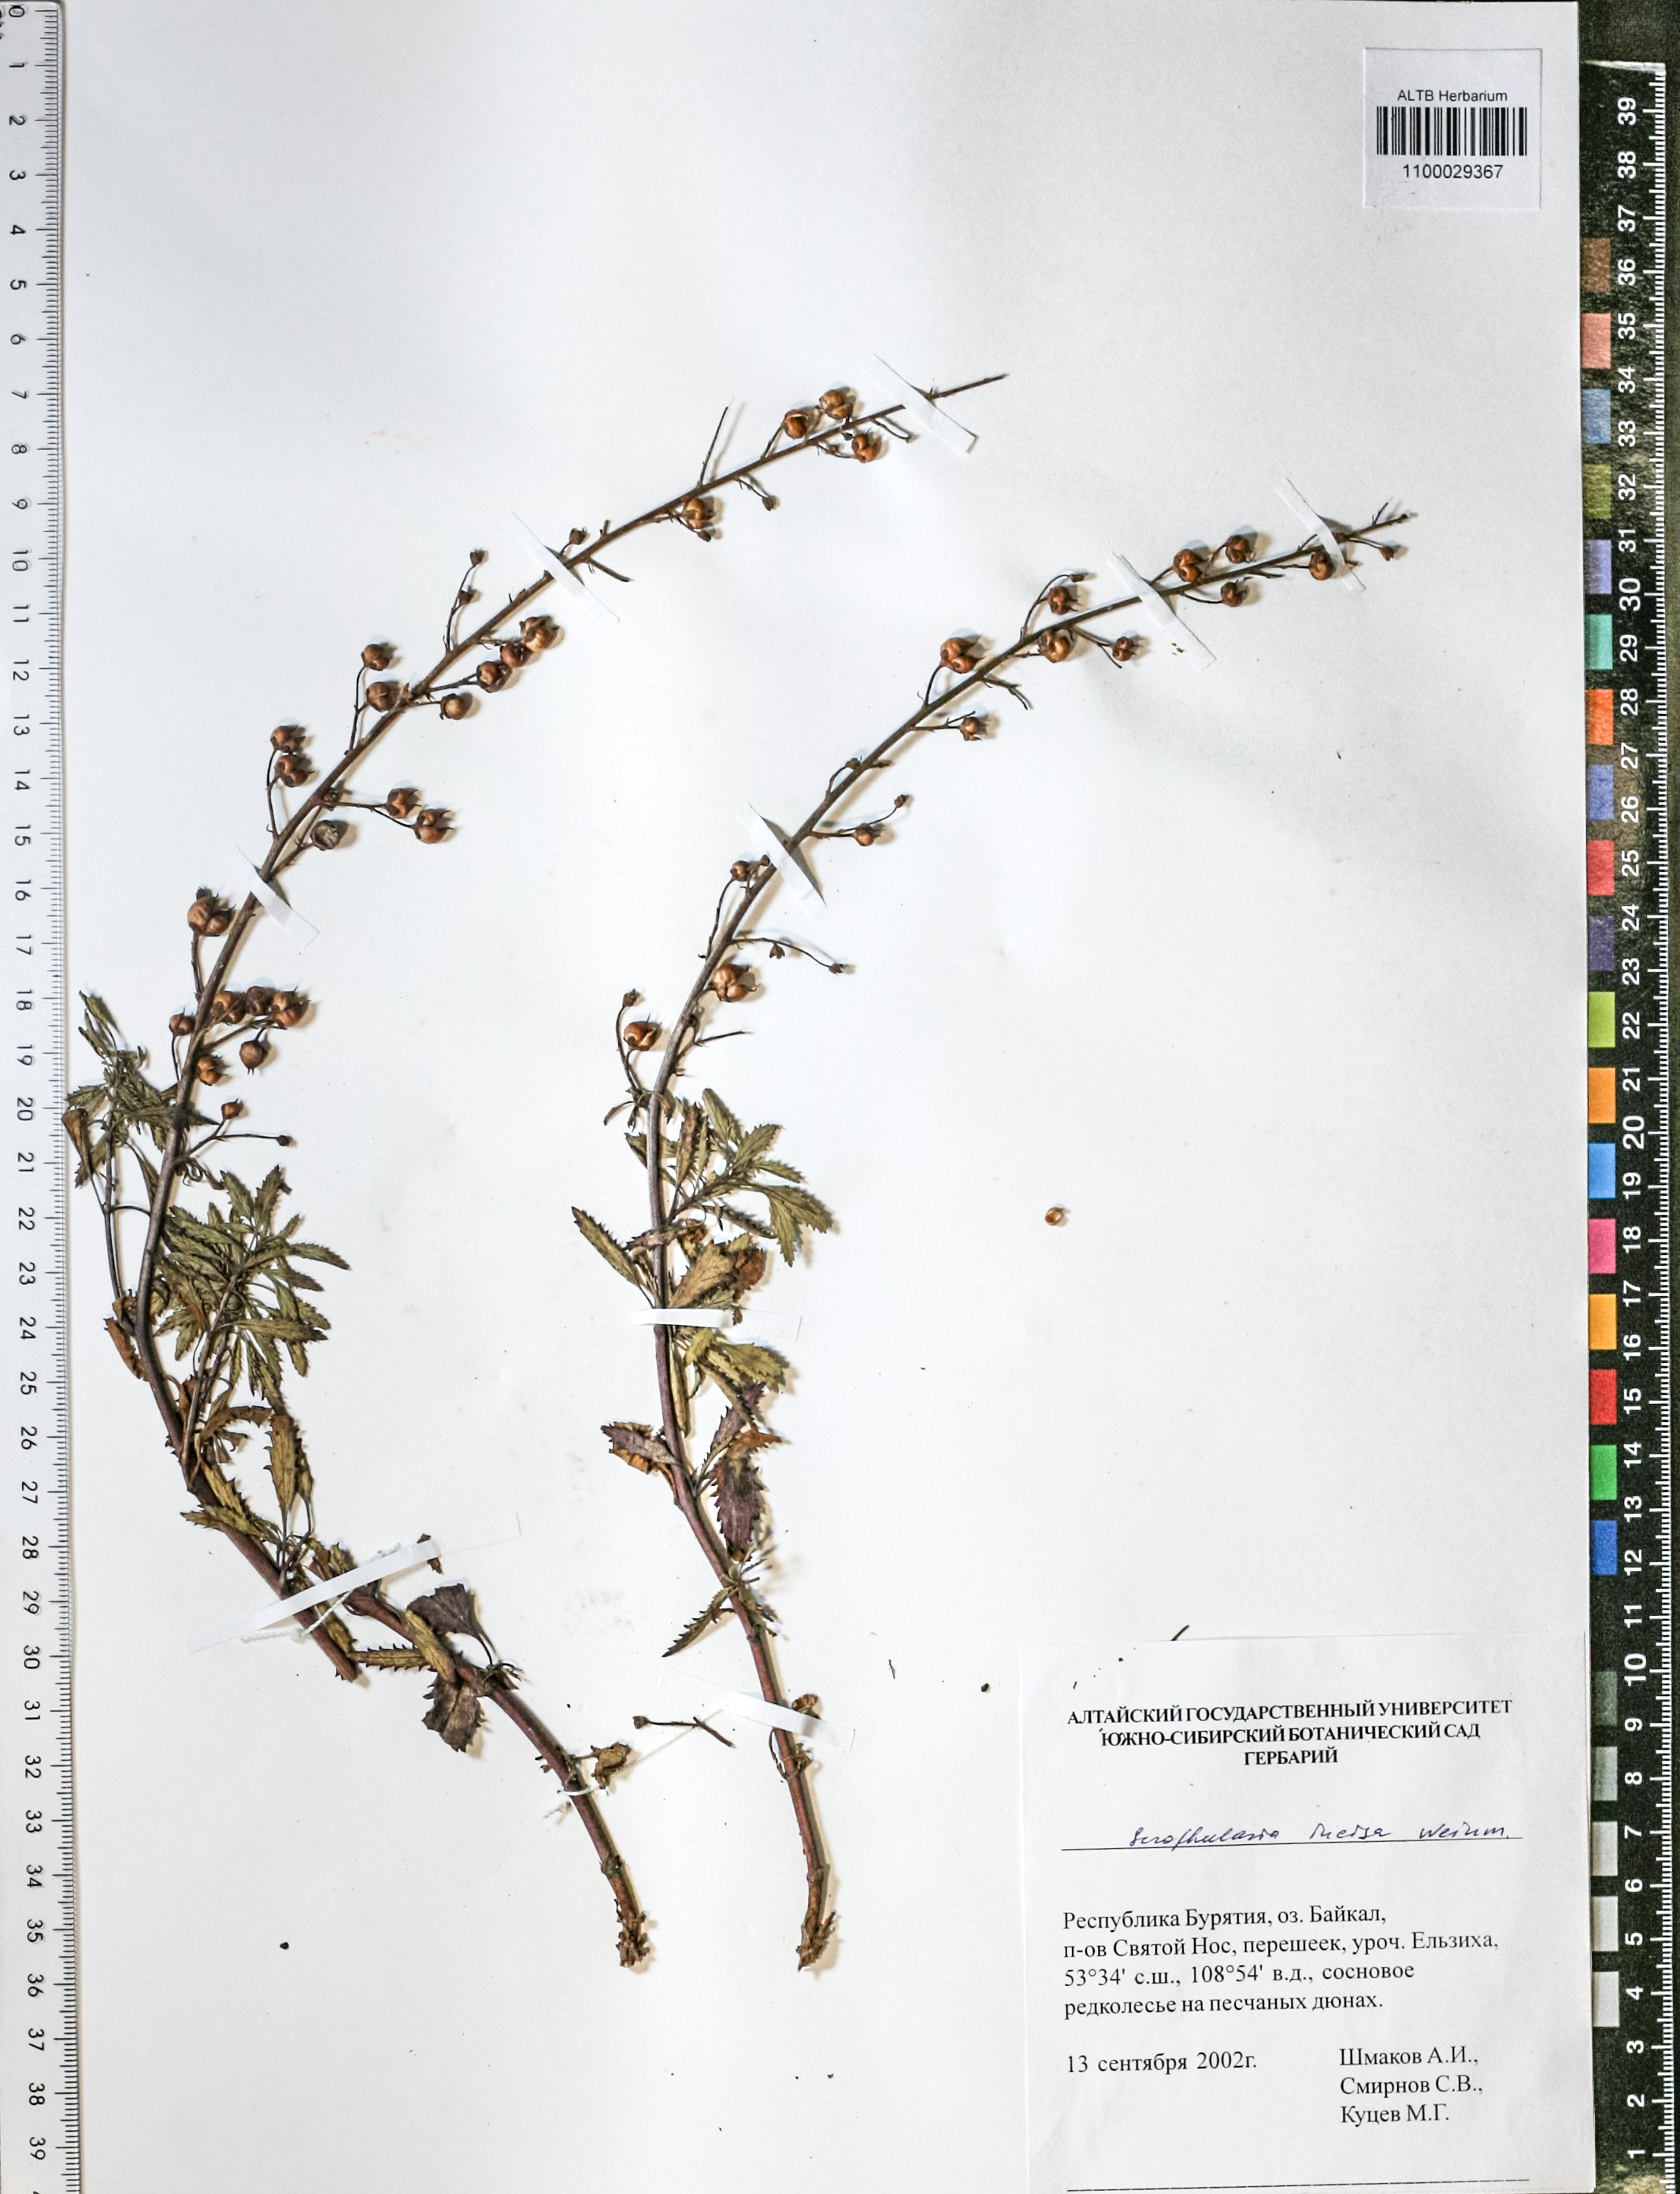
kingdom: Plantae
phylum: Tracheophyta
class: Magnoliopsida
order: Lamiales
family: Scrophulariaceae
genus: Scrophularia
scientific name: Scrophularia incisa
